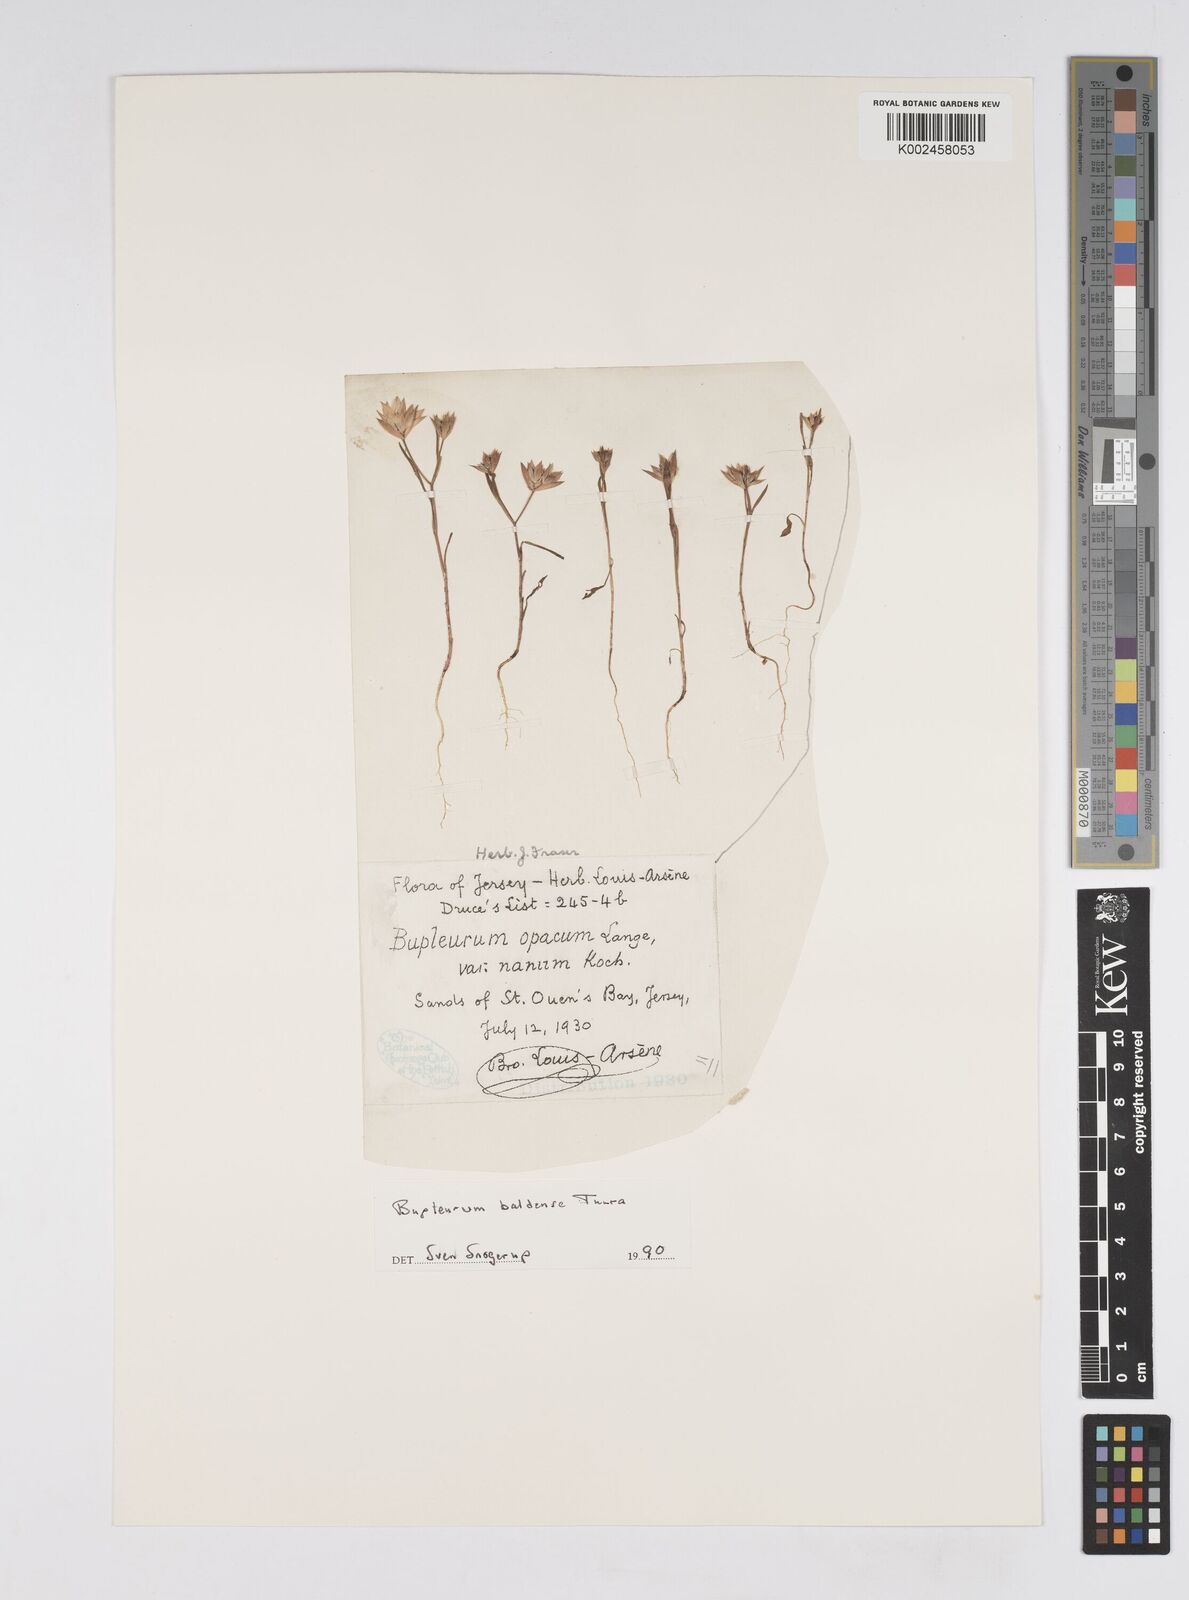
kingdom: Plantae
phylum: Tracheophyta
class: Magnoliopsida
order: Apiales
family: Apiaceae
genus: Bupleurum
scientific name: Bupleurum baldense
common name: Small hare's-ear
